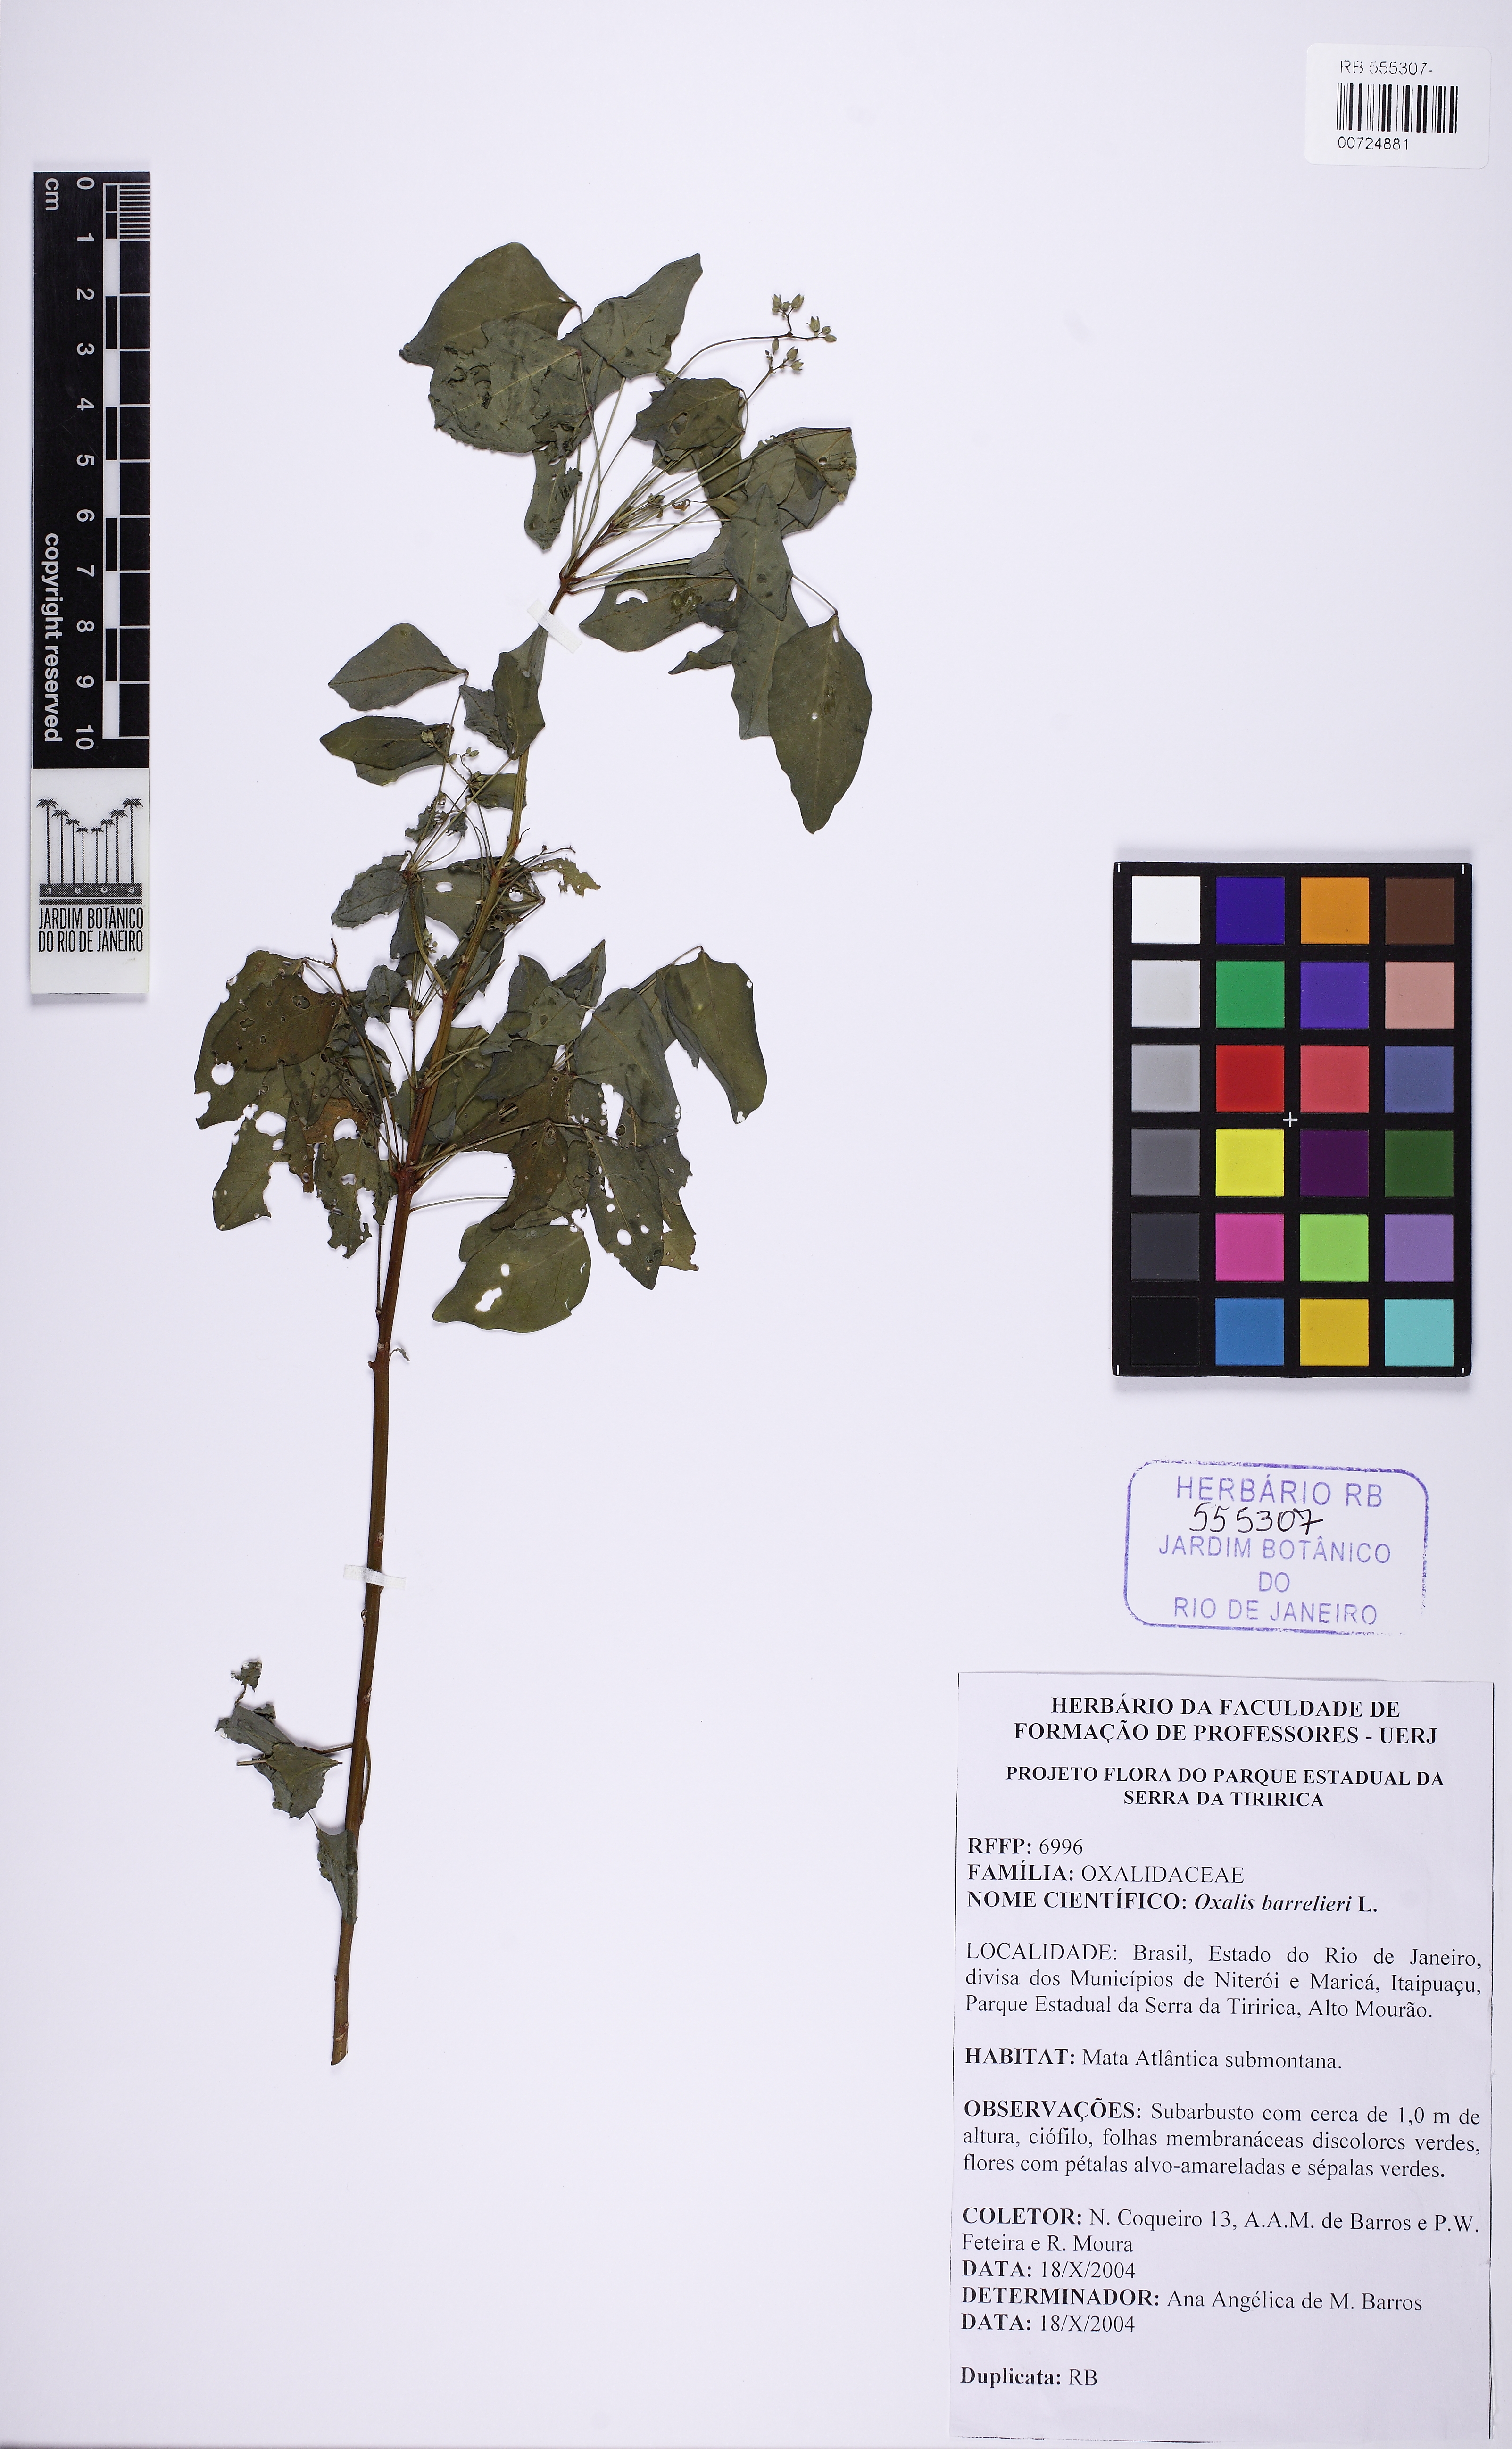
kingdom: Plantae
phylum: Tracheophyta
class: Magnoliopsida
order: Oxalidales
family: Oxalidaceae
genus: Oxalis
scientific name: Oxalis barrelieri
